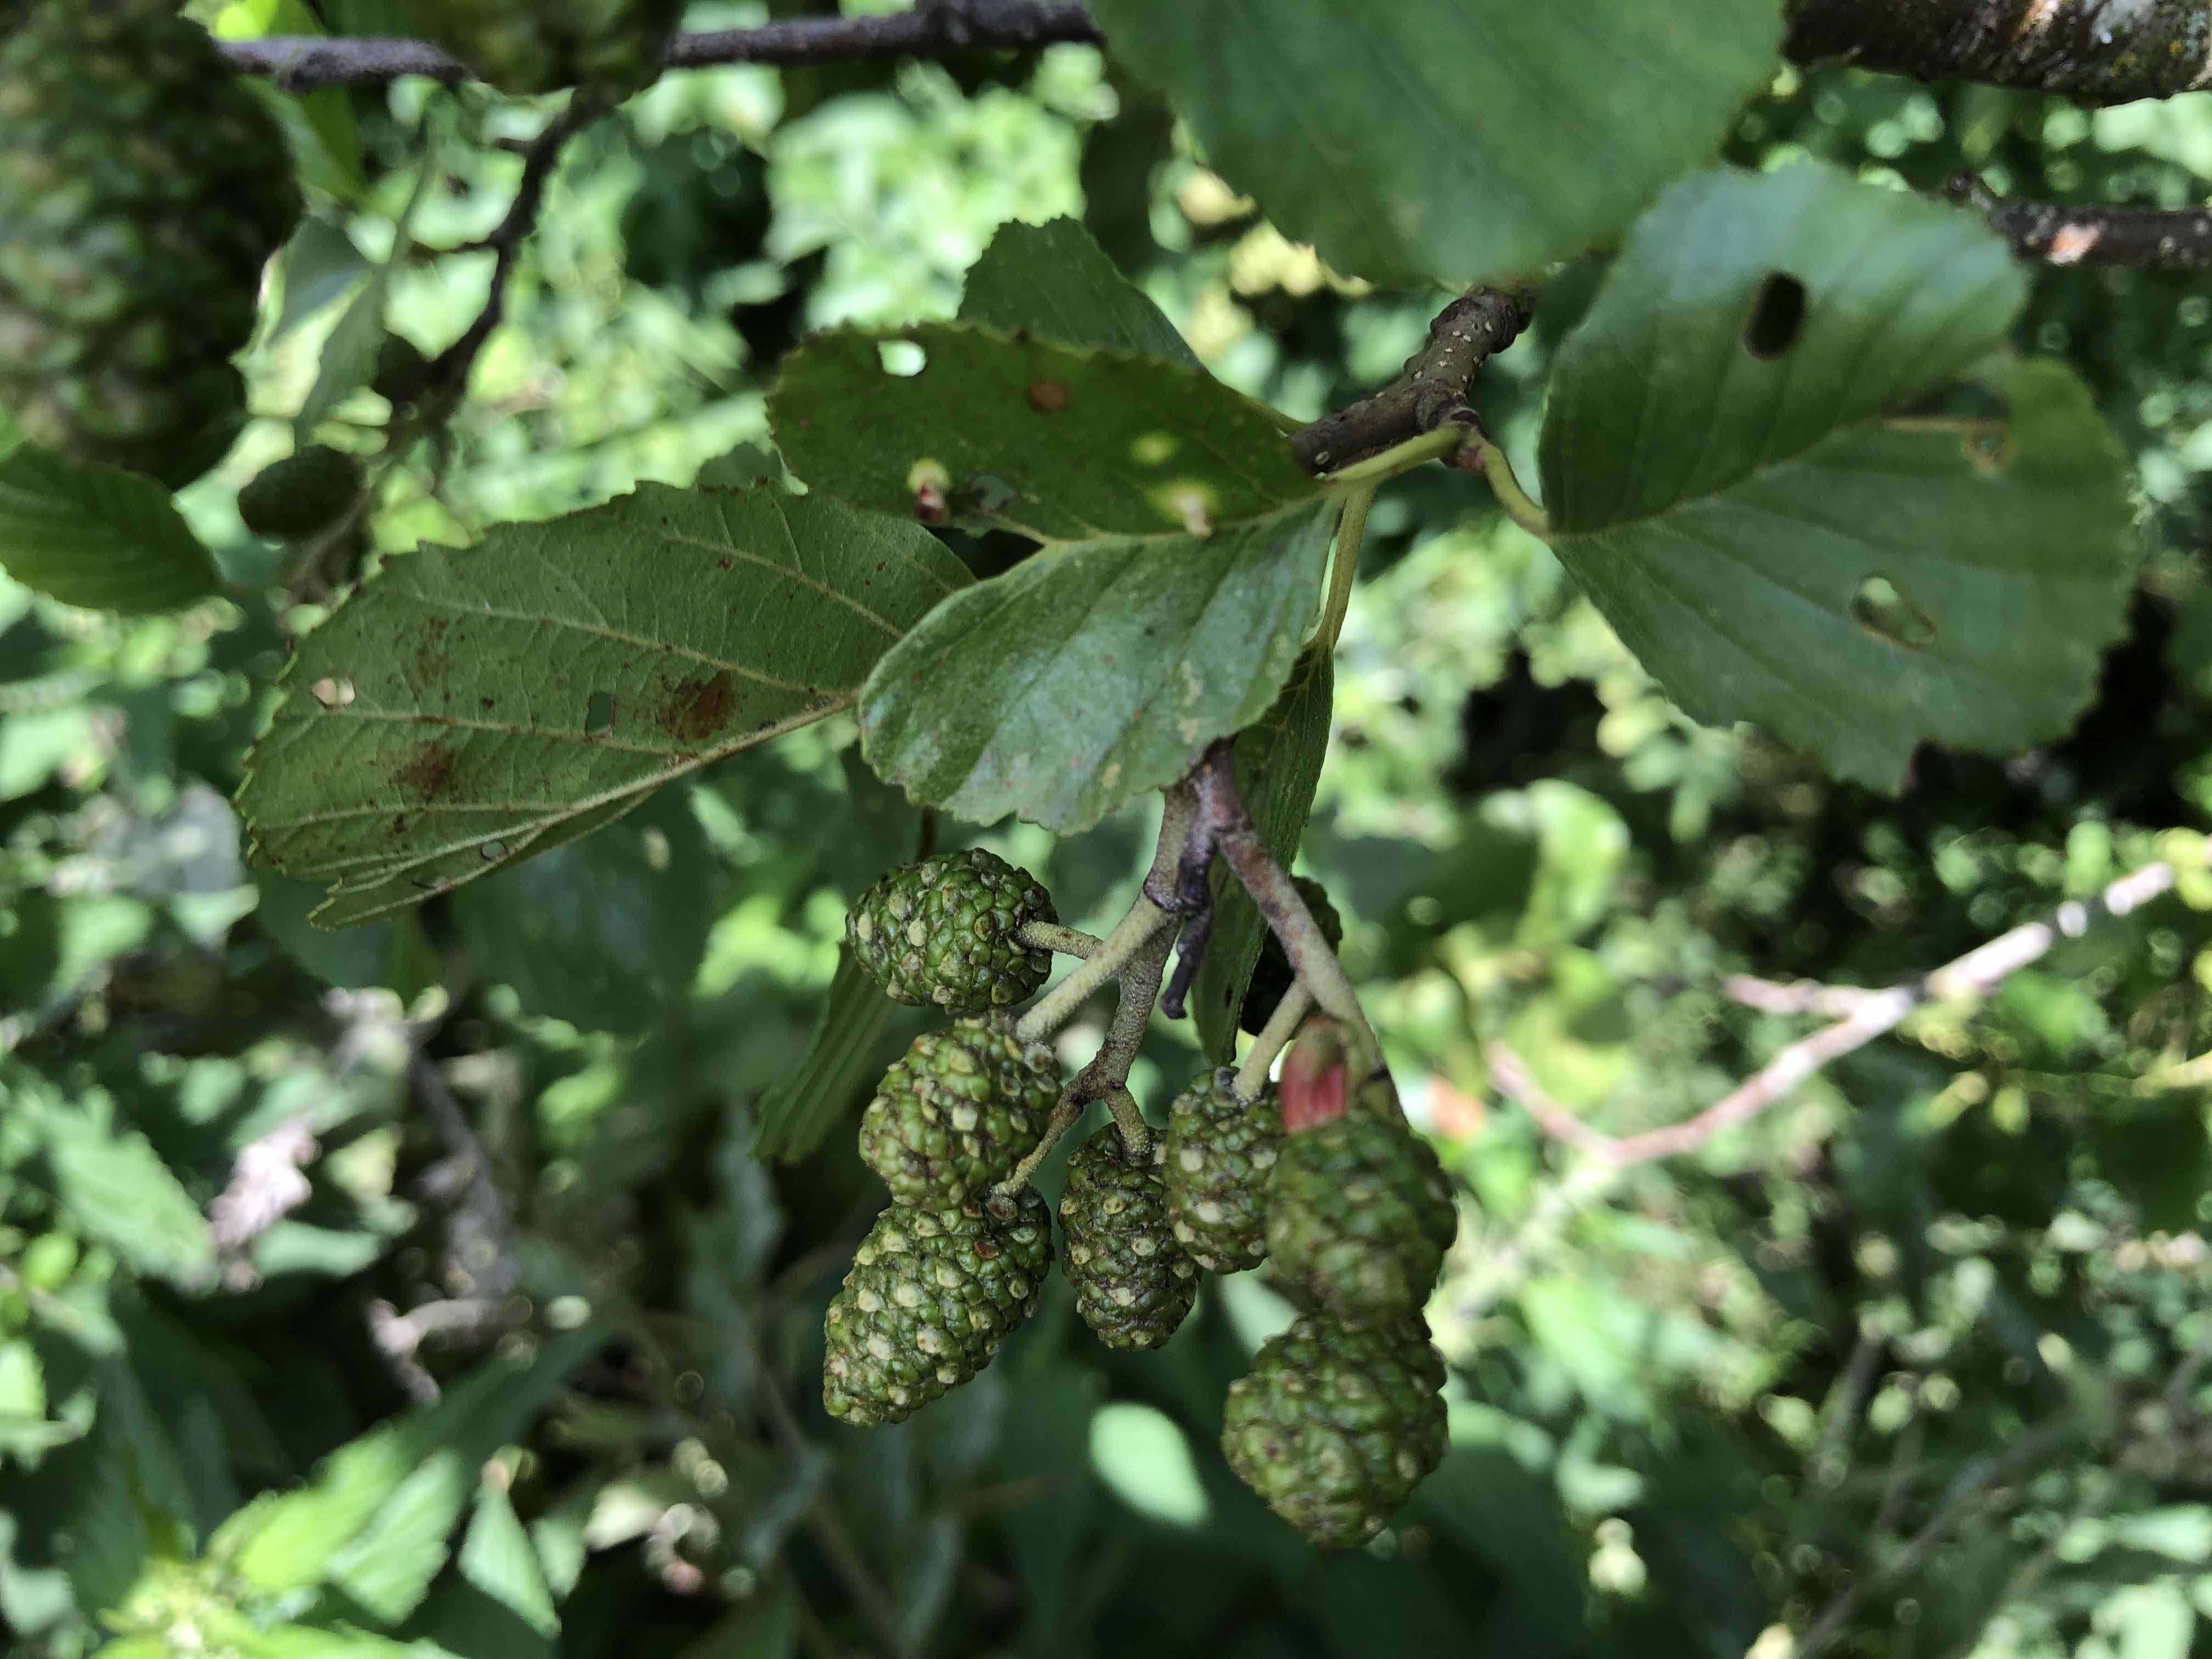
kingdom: Fungi
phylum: Ascomycota
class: Taphrinomycetes
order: Taphrinales
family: Taphrinaceae
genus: Taphrina
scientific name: Taphrina alni
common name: Alder tongue
